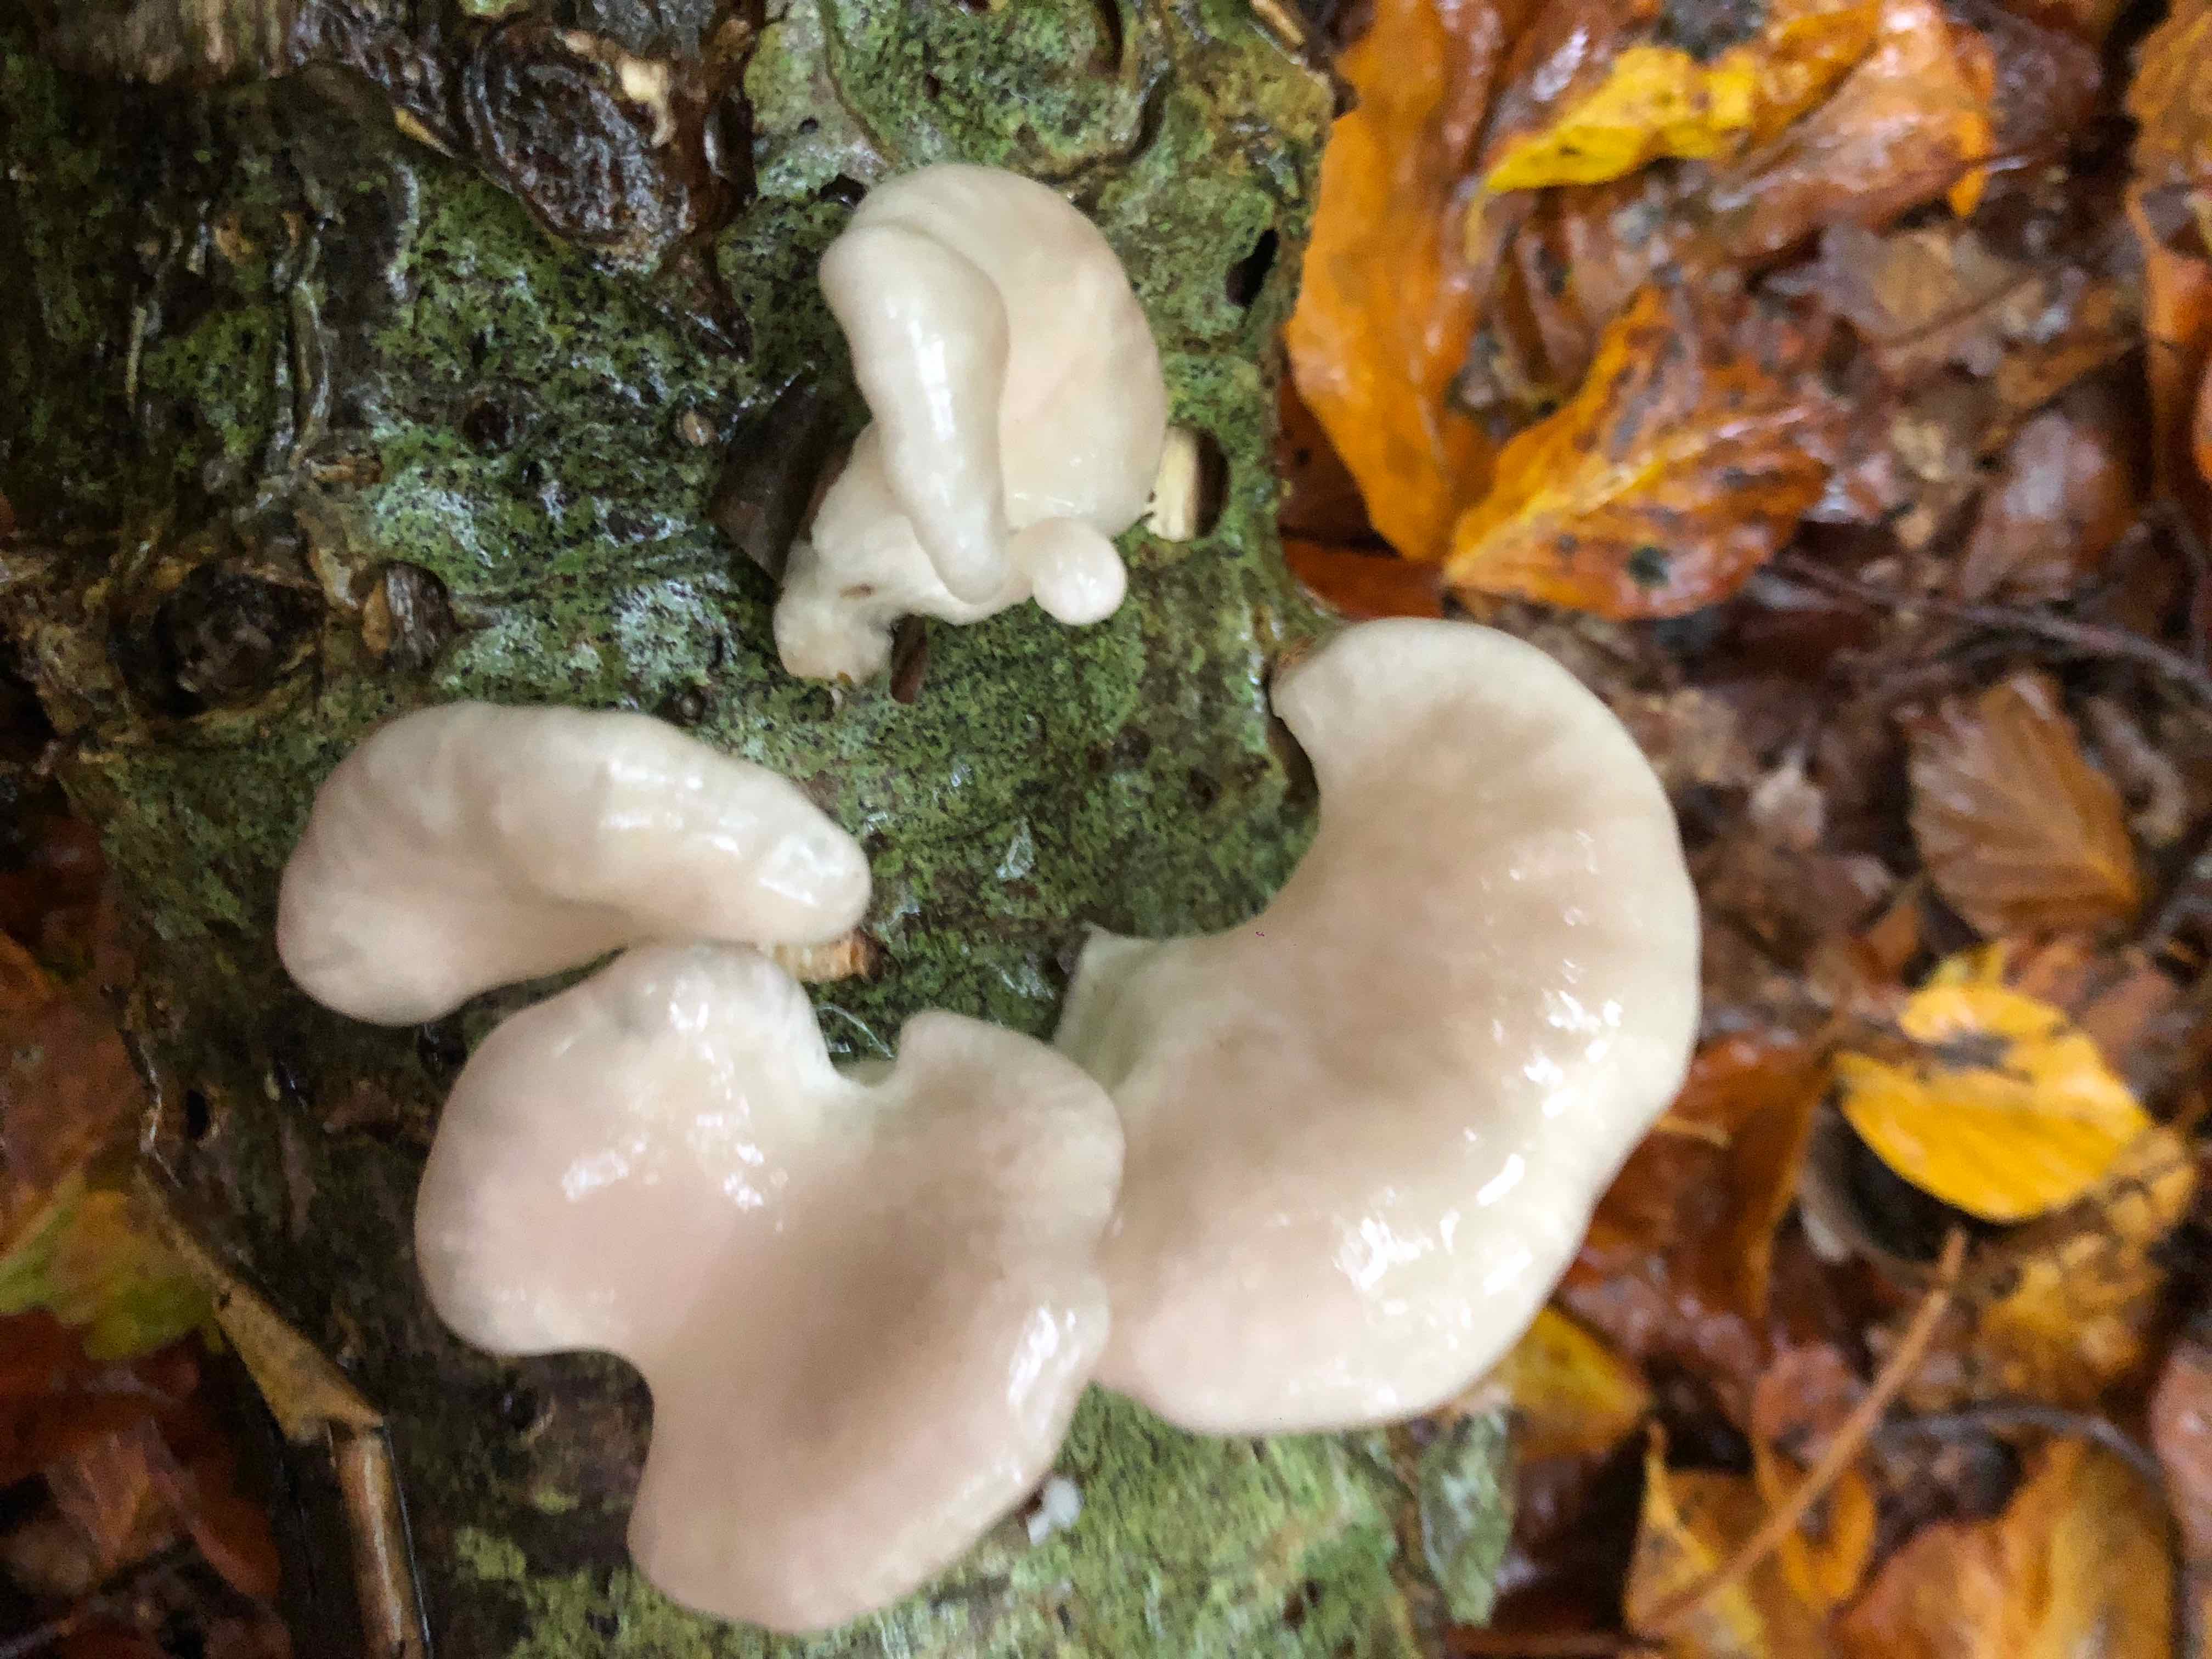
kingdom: Fungi
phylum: Basidiomycota
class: Agaricomycetes
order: Agaricales
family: Pleurotaceae
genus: Pleurotus
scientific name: Pleurotus
